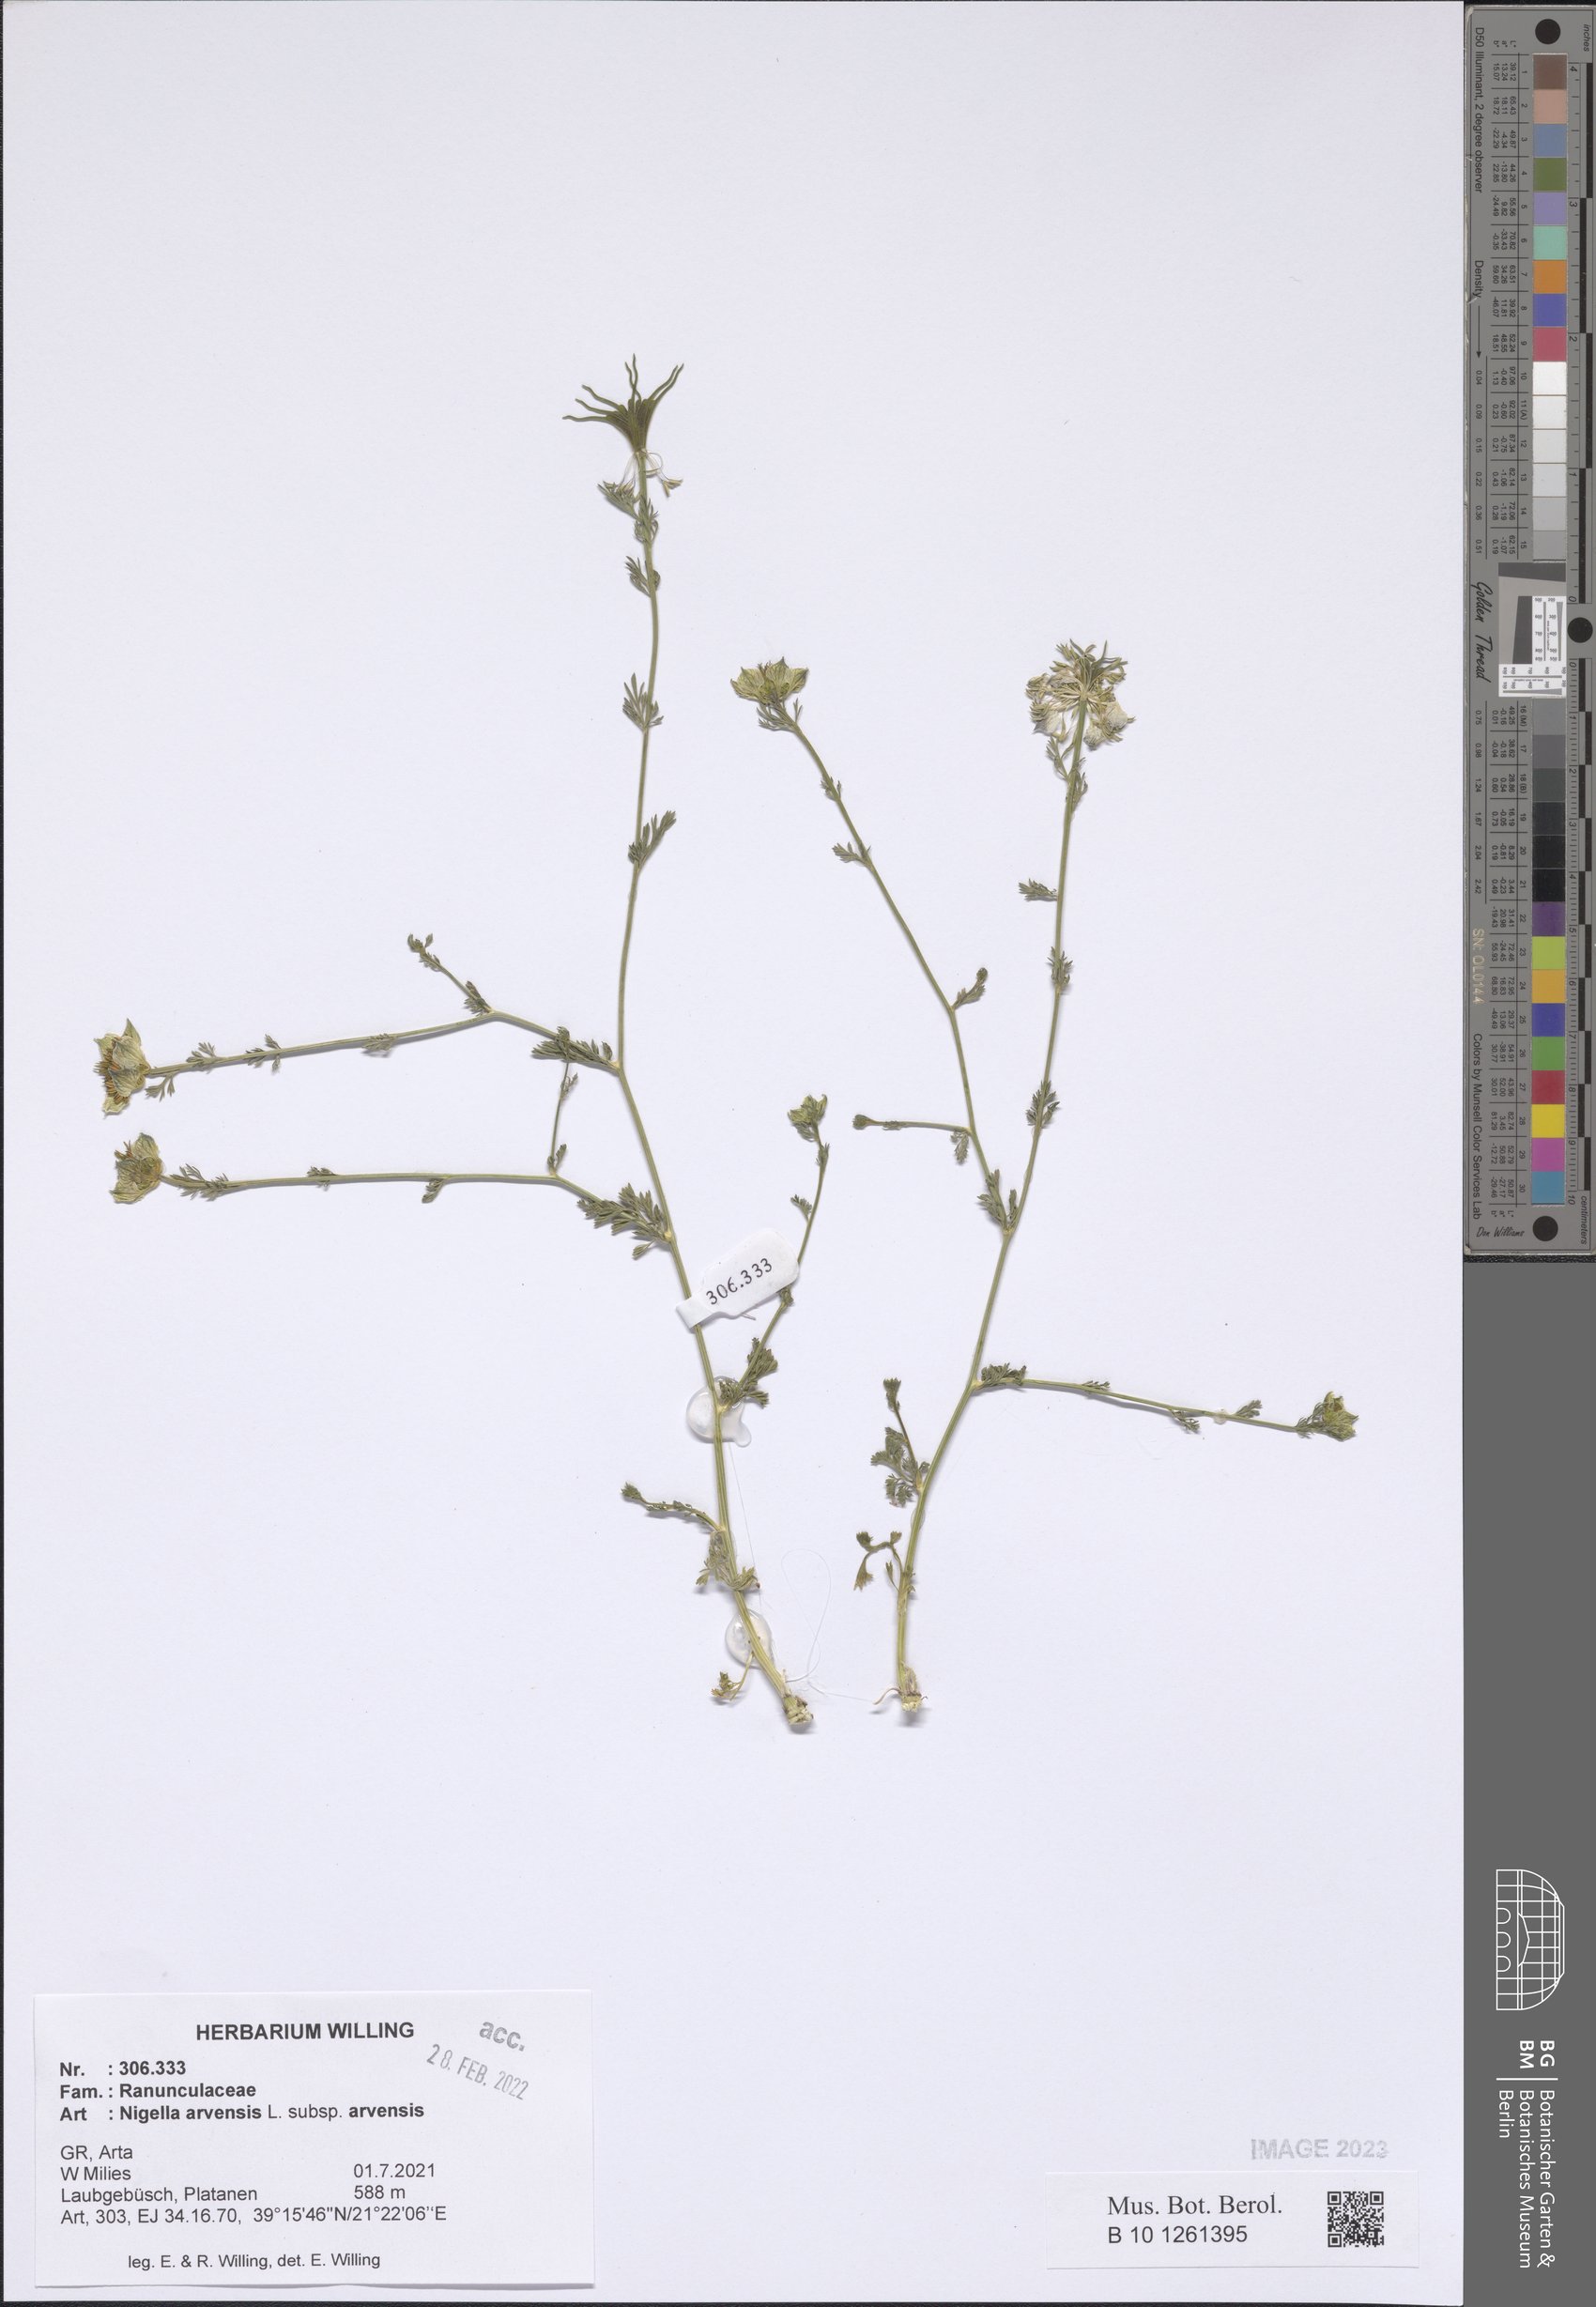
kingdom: Plantae
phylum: Tracheophyta
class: Magnoliopsida
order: Ranunculales
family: Ranunculaceae
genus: Nigella
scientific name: Nigella arvensis
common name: Wild fennel-flower
